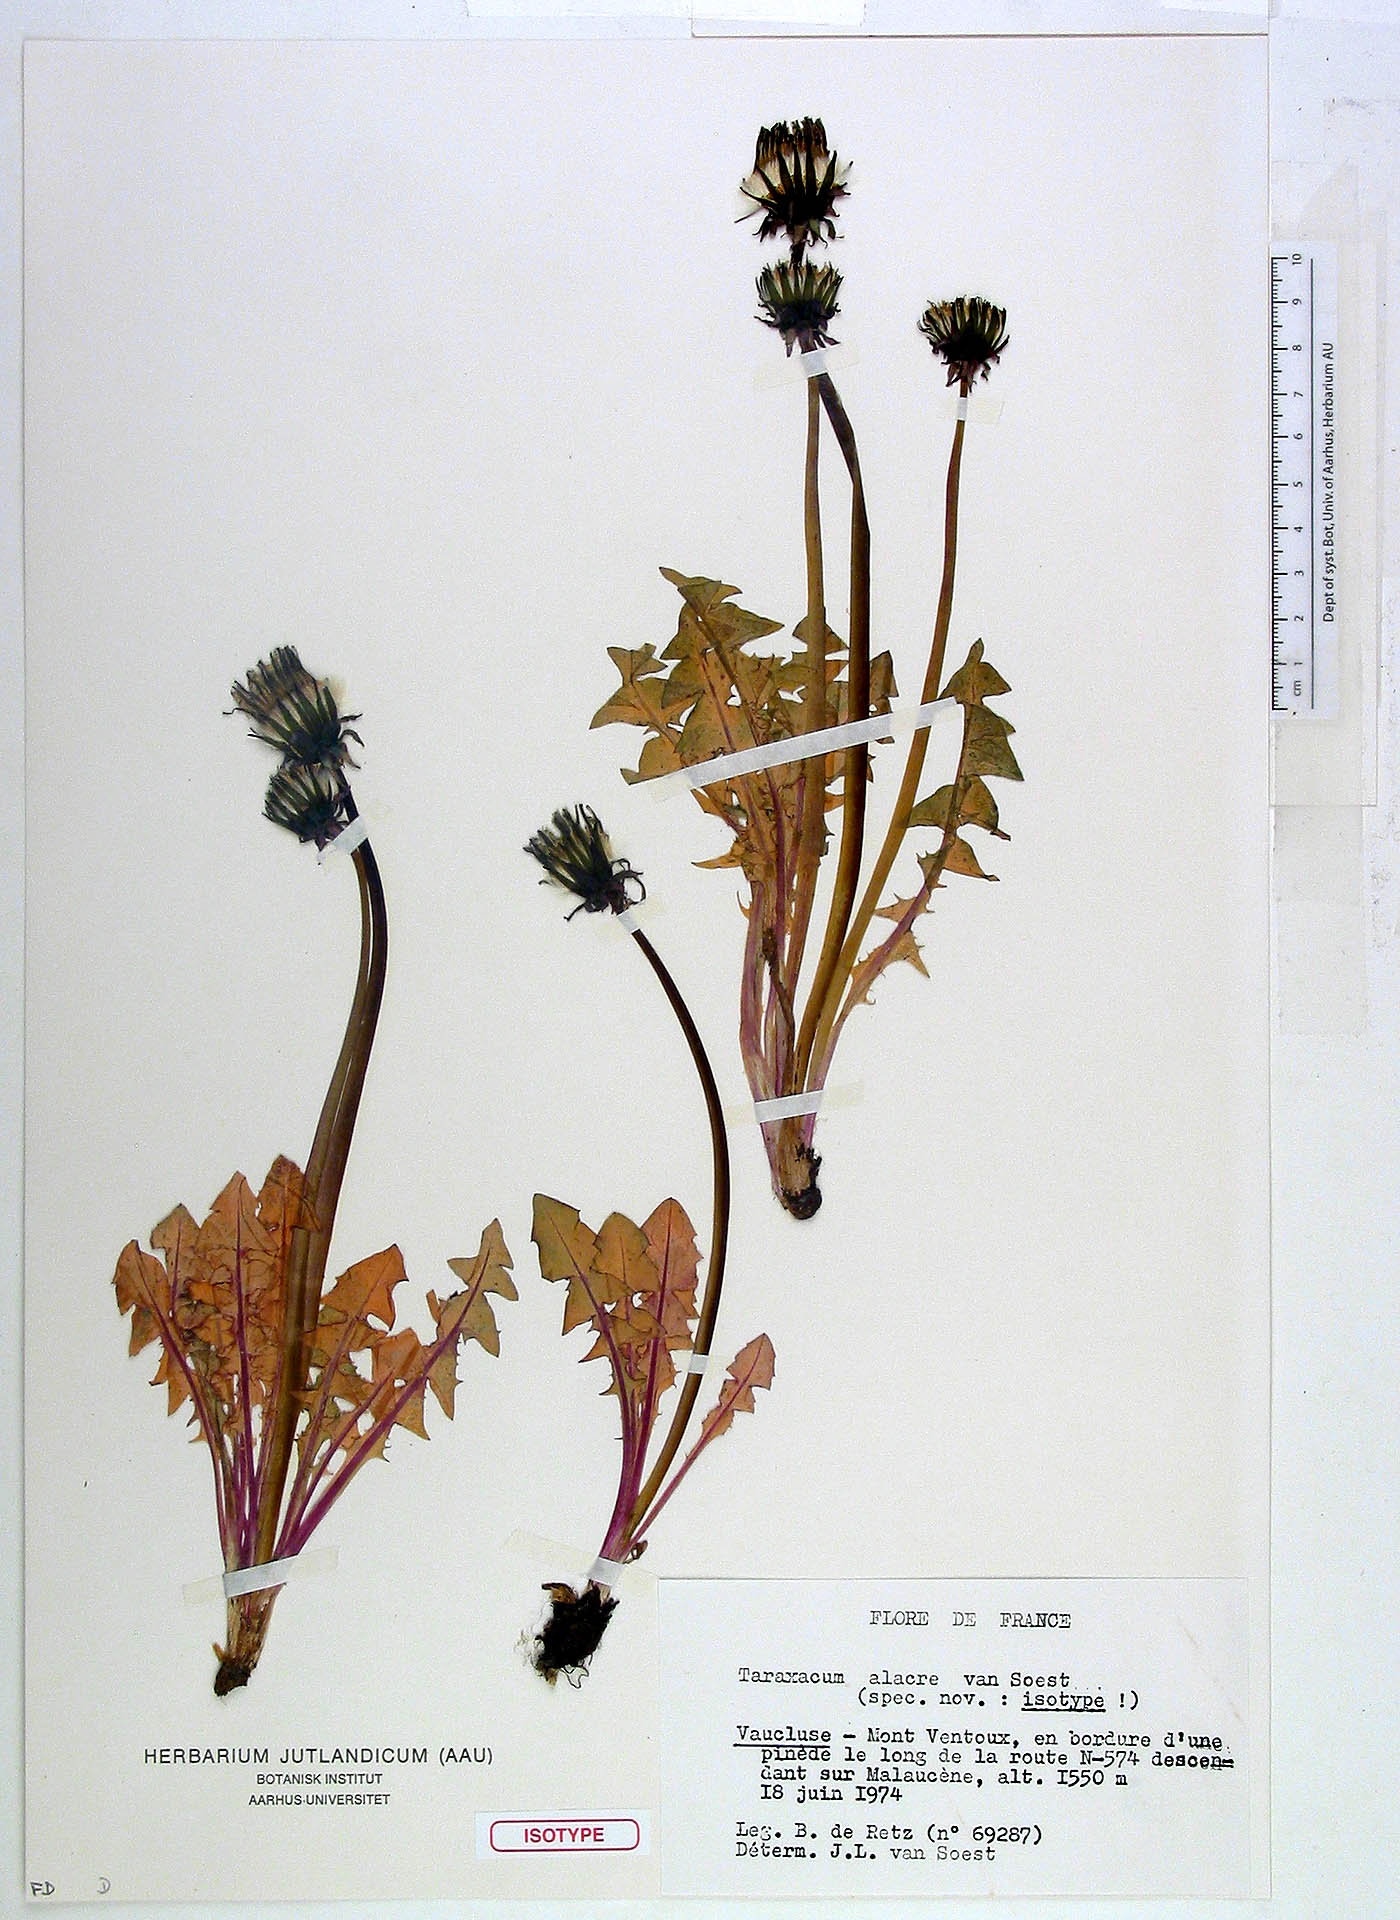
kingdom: Plantae
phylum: Tracheophyta
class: Magnoliopsida
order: Asterales
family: Asteraceae
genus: Taraxacum
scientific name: Taraxacum alacre
